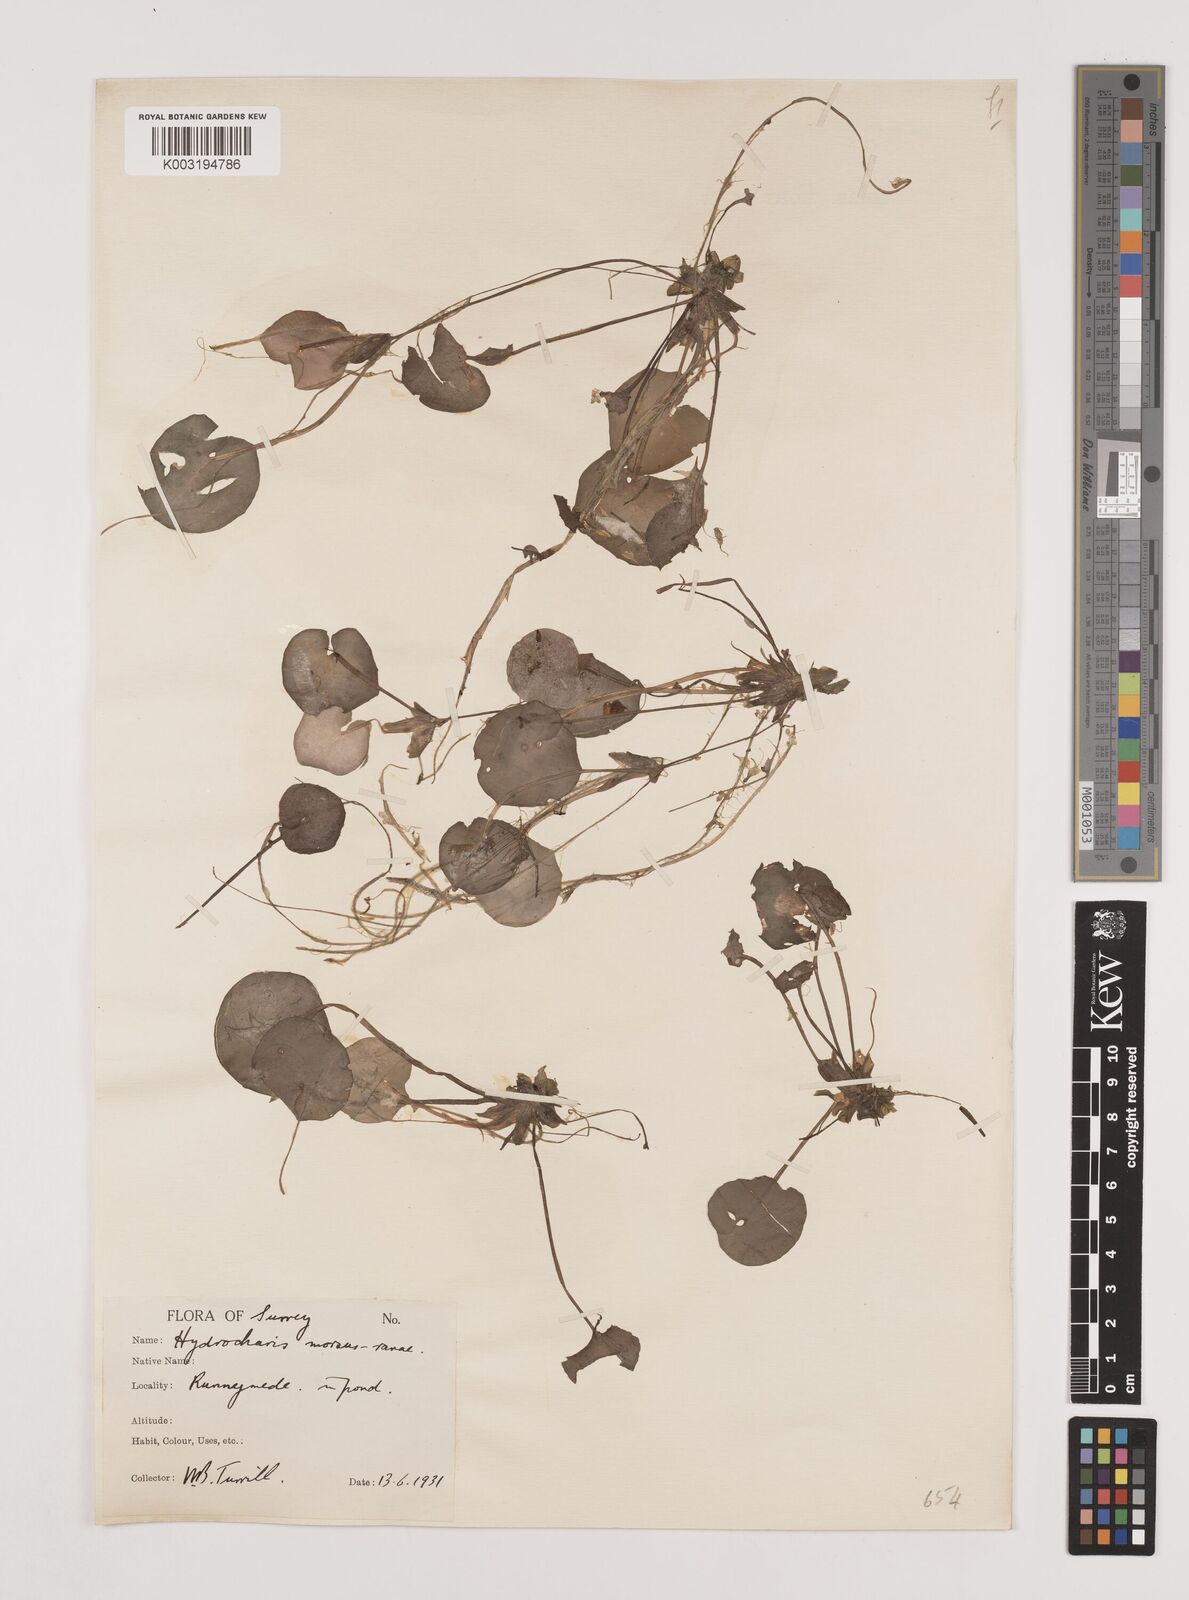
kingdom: Plantae
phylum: Tracheophyta
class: Liliopsida
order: Alismatales
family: Hydrocharitaceae
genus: Hydrocharis
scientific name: Hydrocharis morsus-ranae
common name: Frogbit
